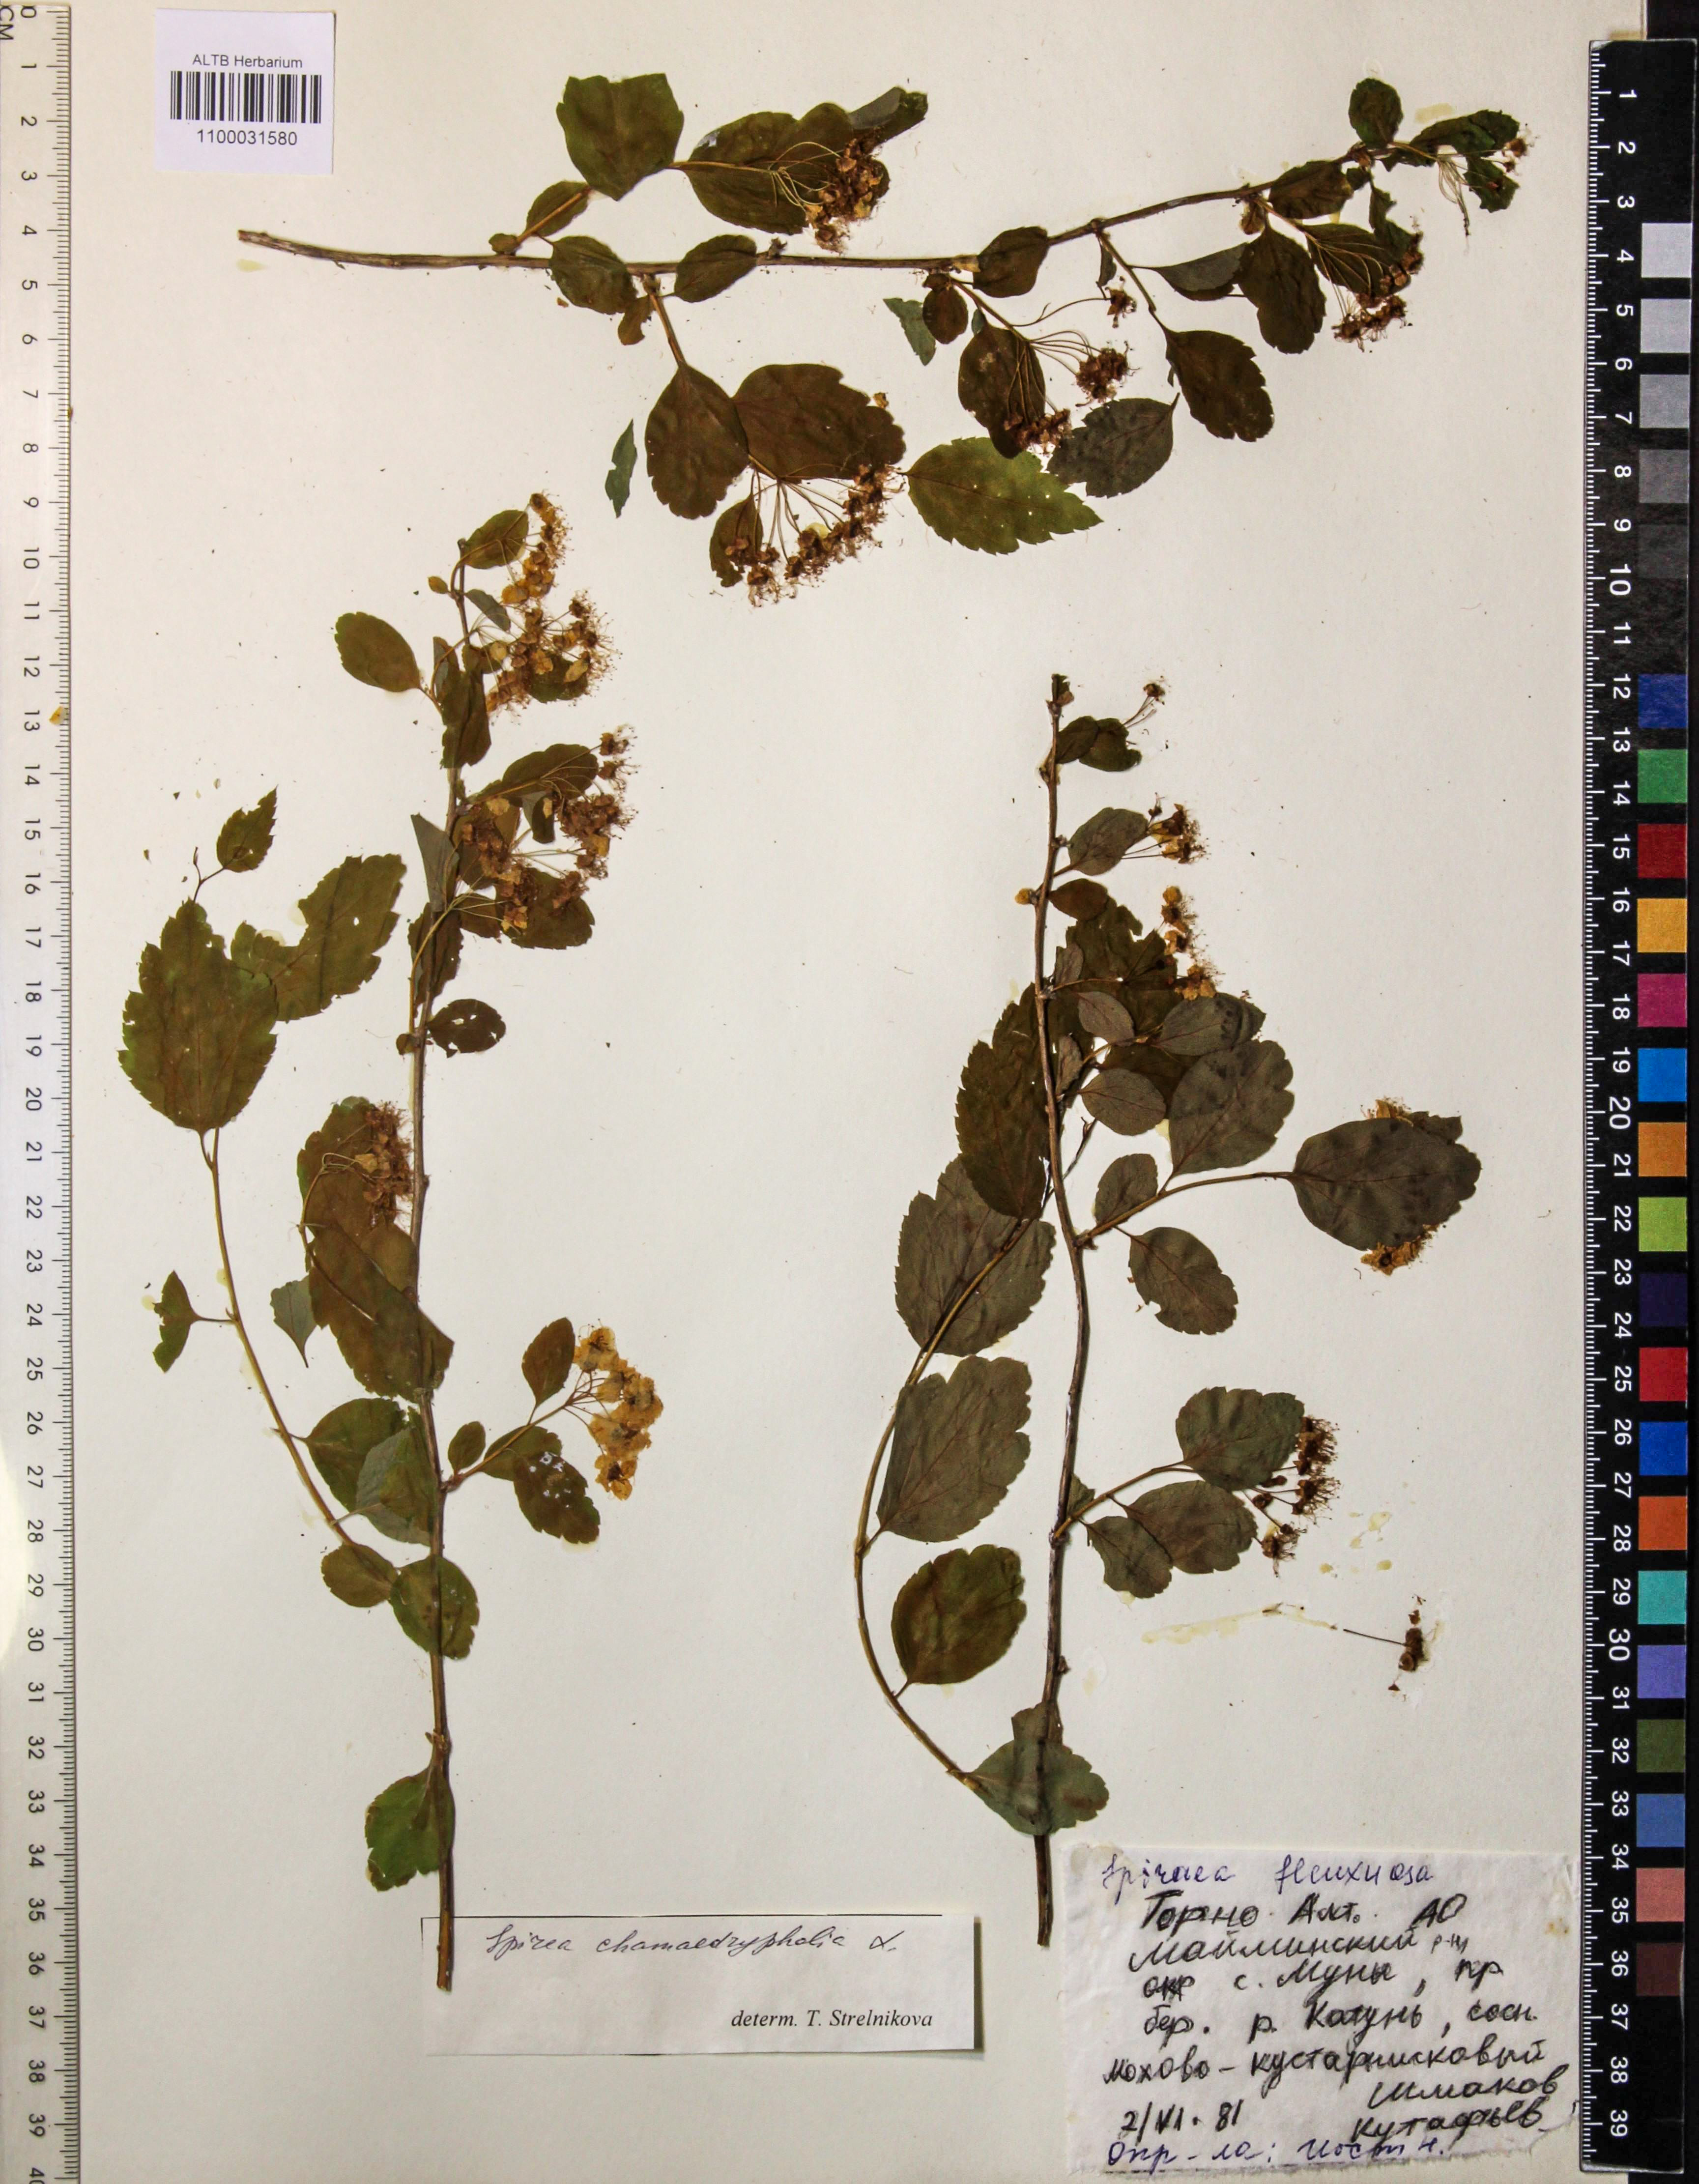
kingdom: Plantae
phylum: Tracheophyta
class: Magnoliopsida
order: Rosales
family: Rosaceae
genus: Spiraea
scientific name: Spiraea chamaedryfolia
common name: Elm-leaved spiraea
